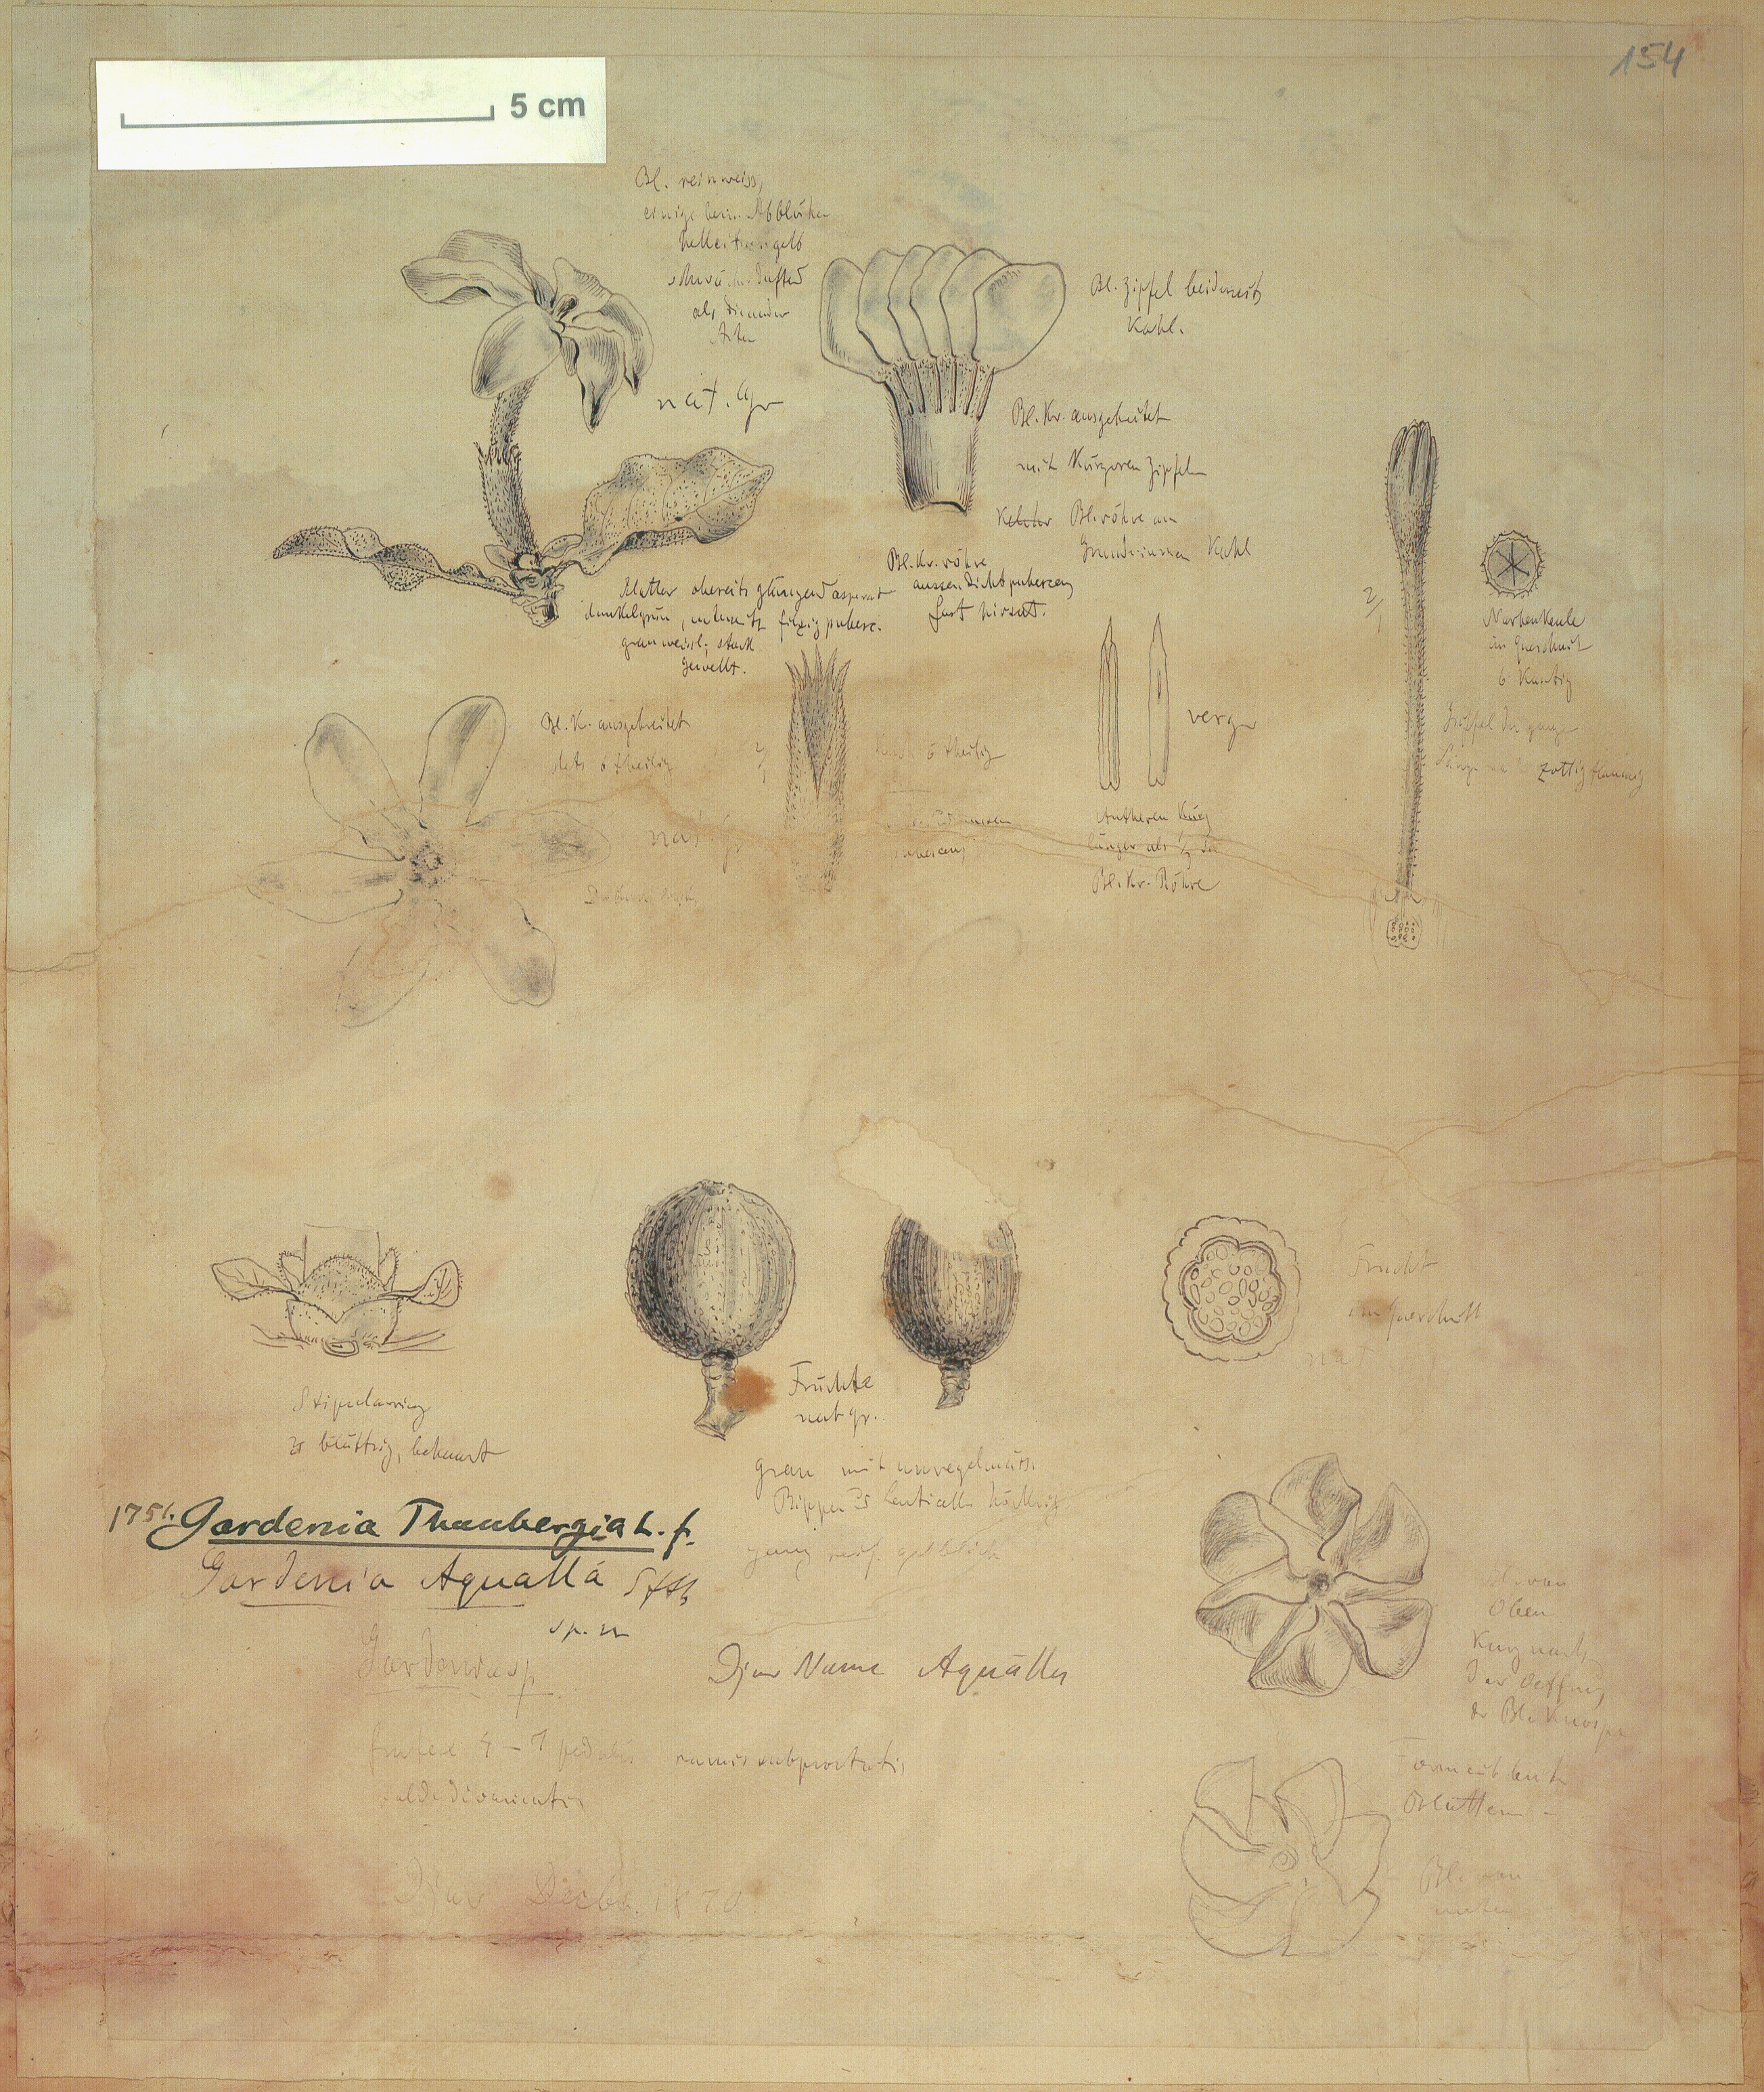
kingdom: Plantae
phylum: Tracheophyta
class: Magnoliopsida
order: Gentianales
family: Rubiaceae
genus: Gardenia
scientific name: Gardenia aqualla
